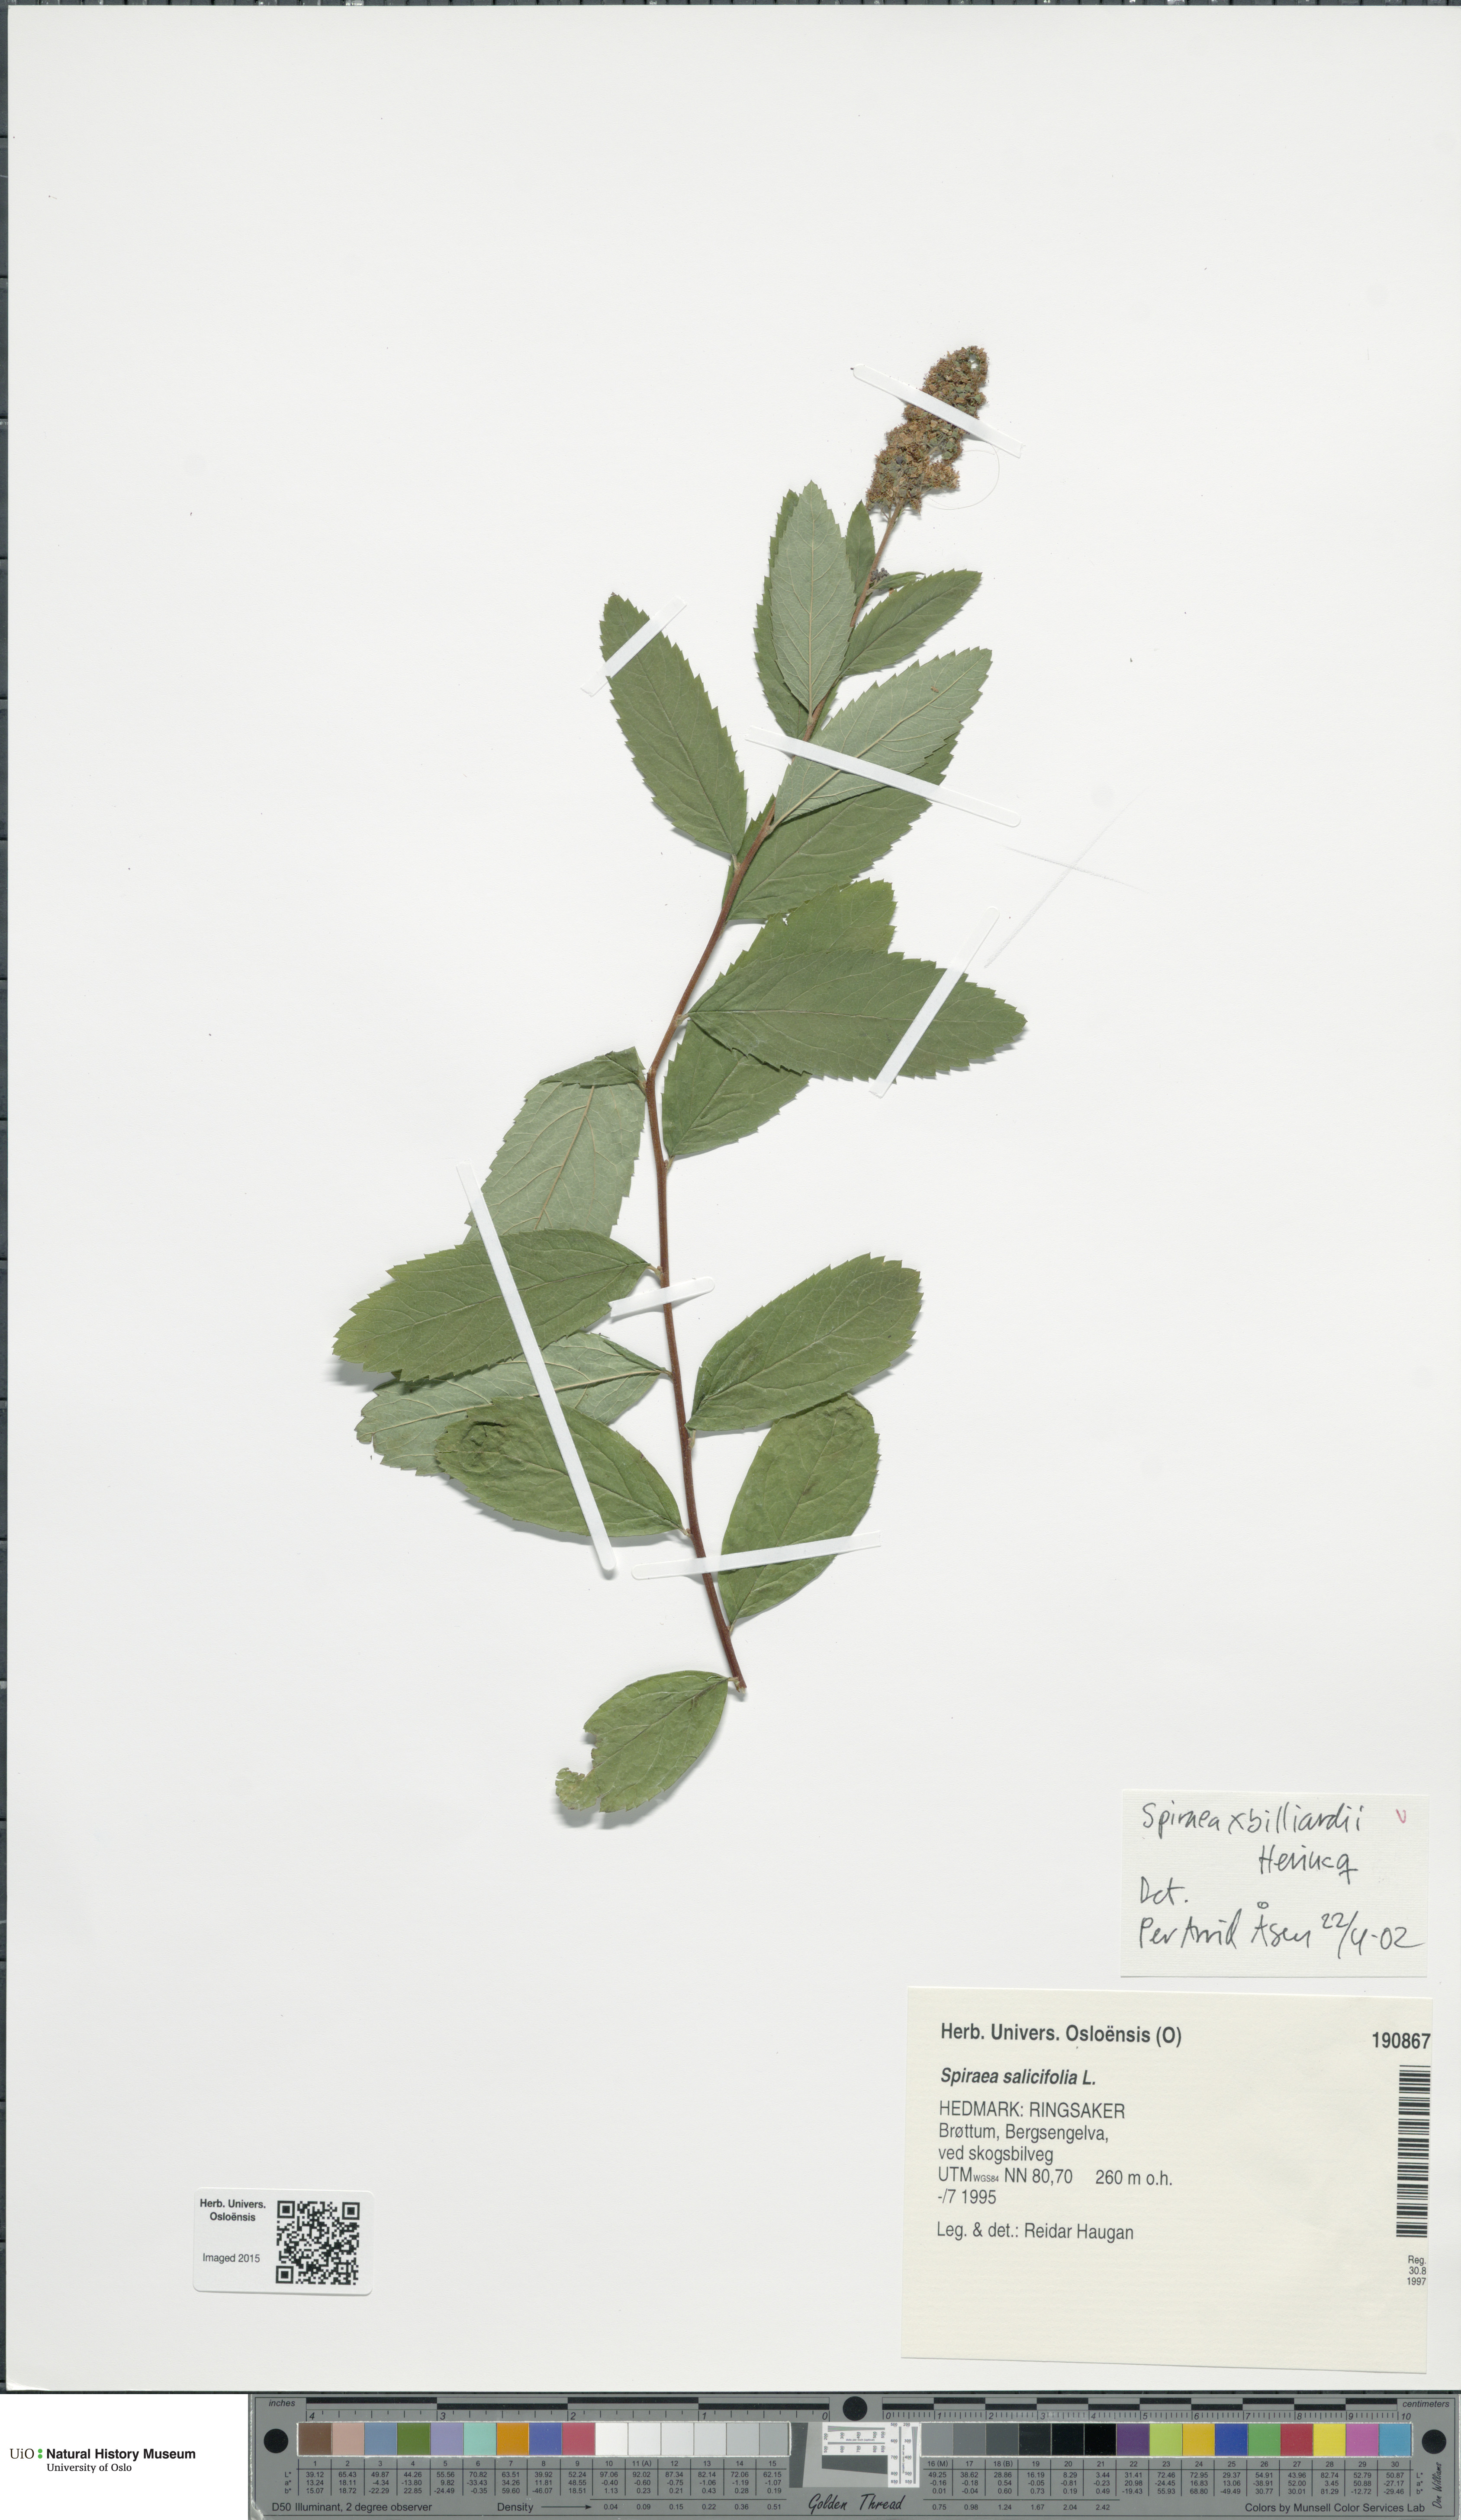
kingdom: Plantae
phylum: Tracheophyta
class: Magnoliopsida
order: Rosales
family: Rosaceae
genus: Spiraea
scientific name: Spiraea billardii
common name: Billard's bridewort
